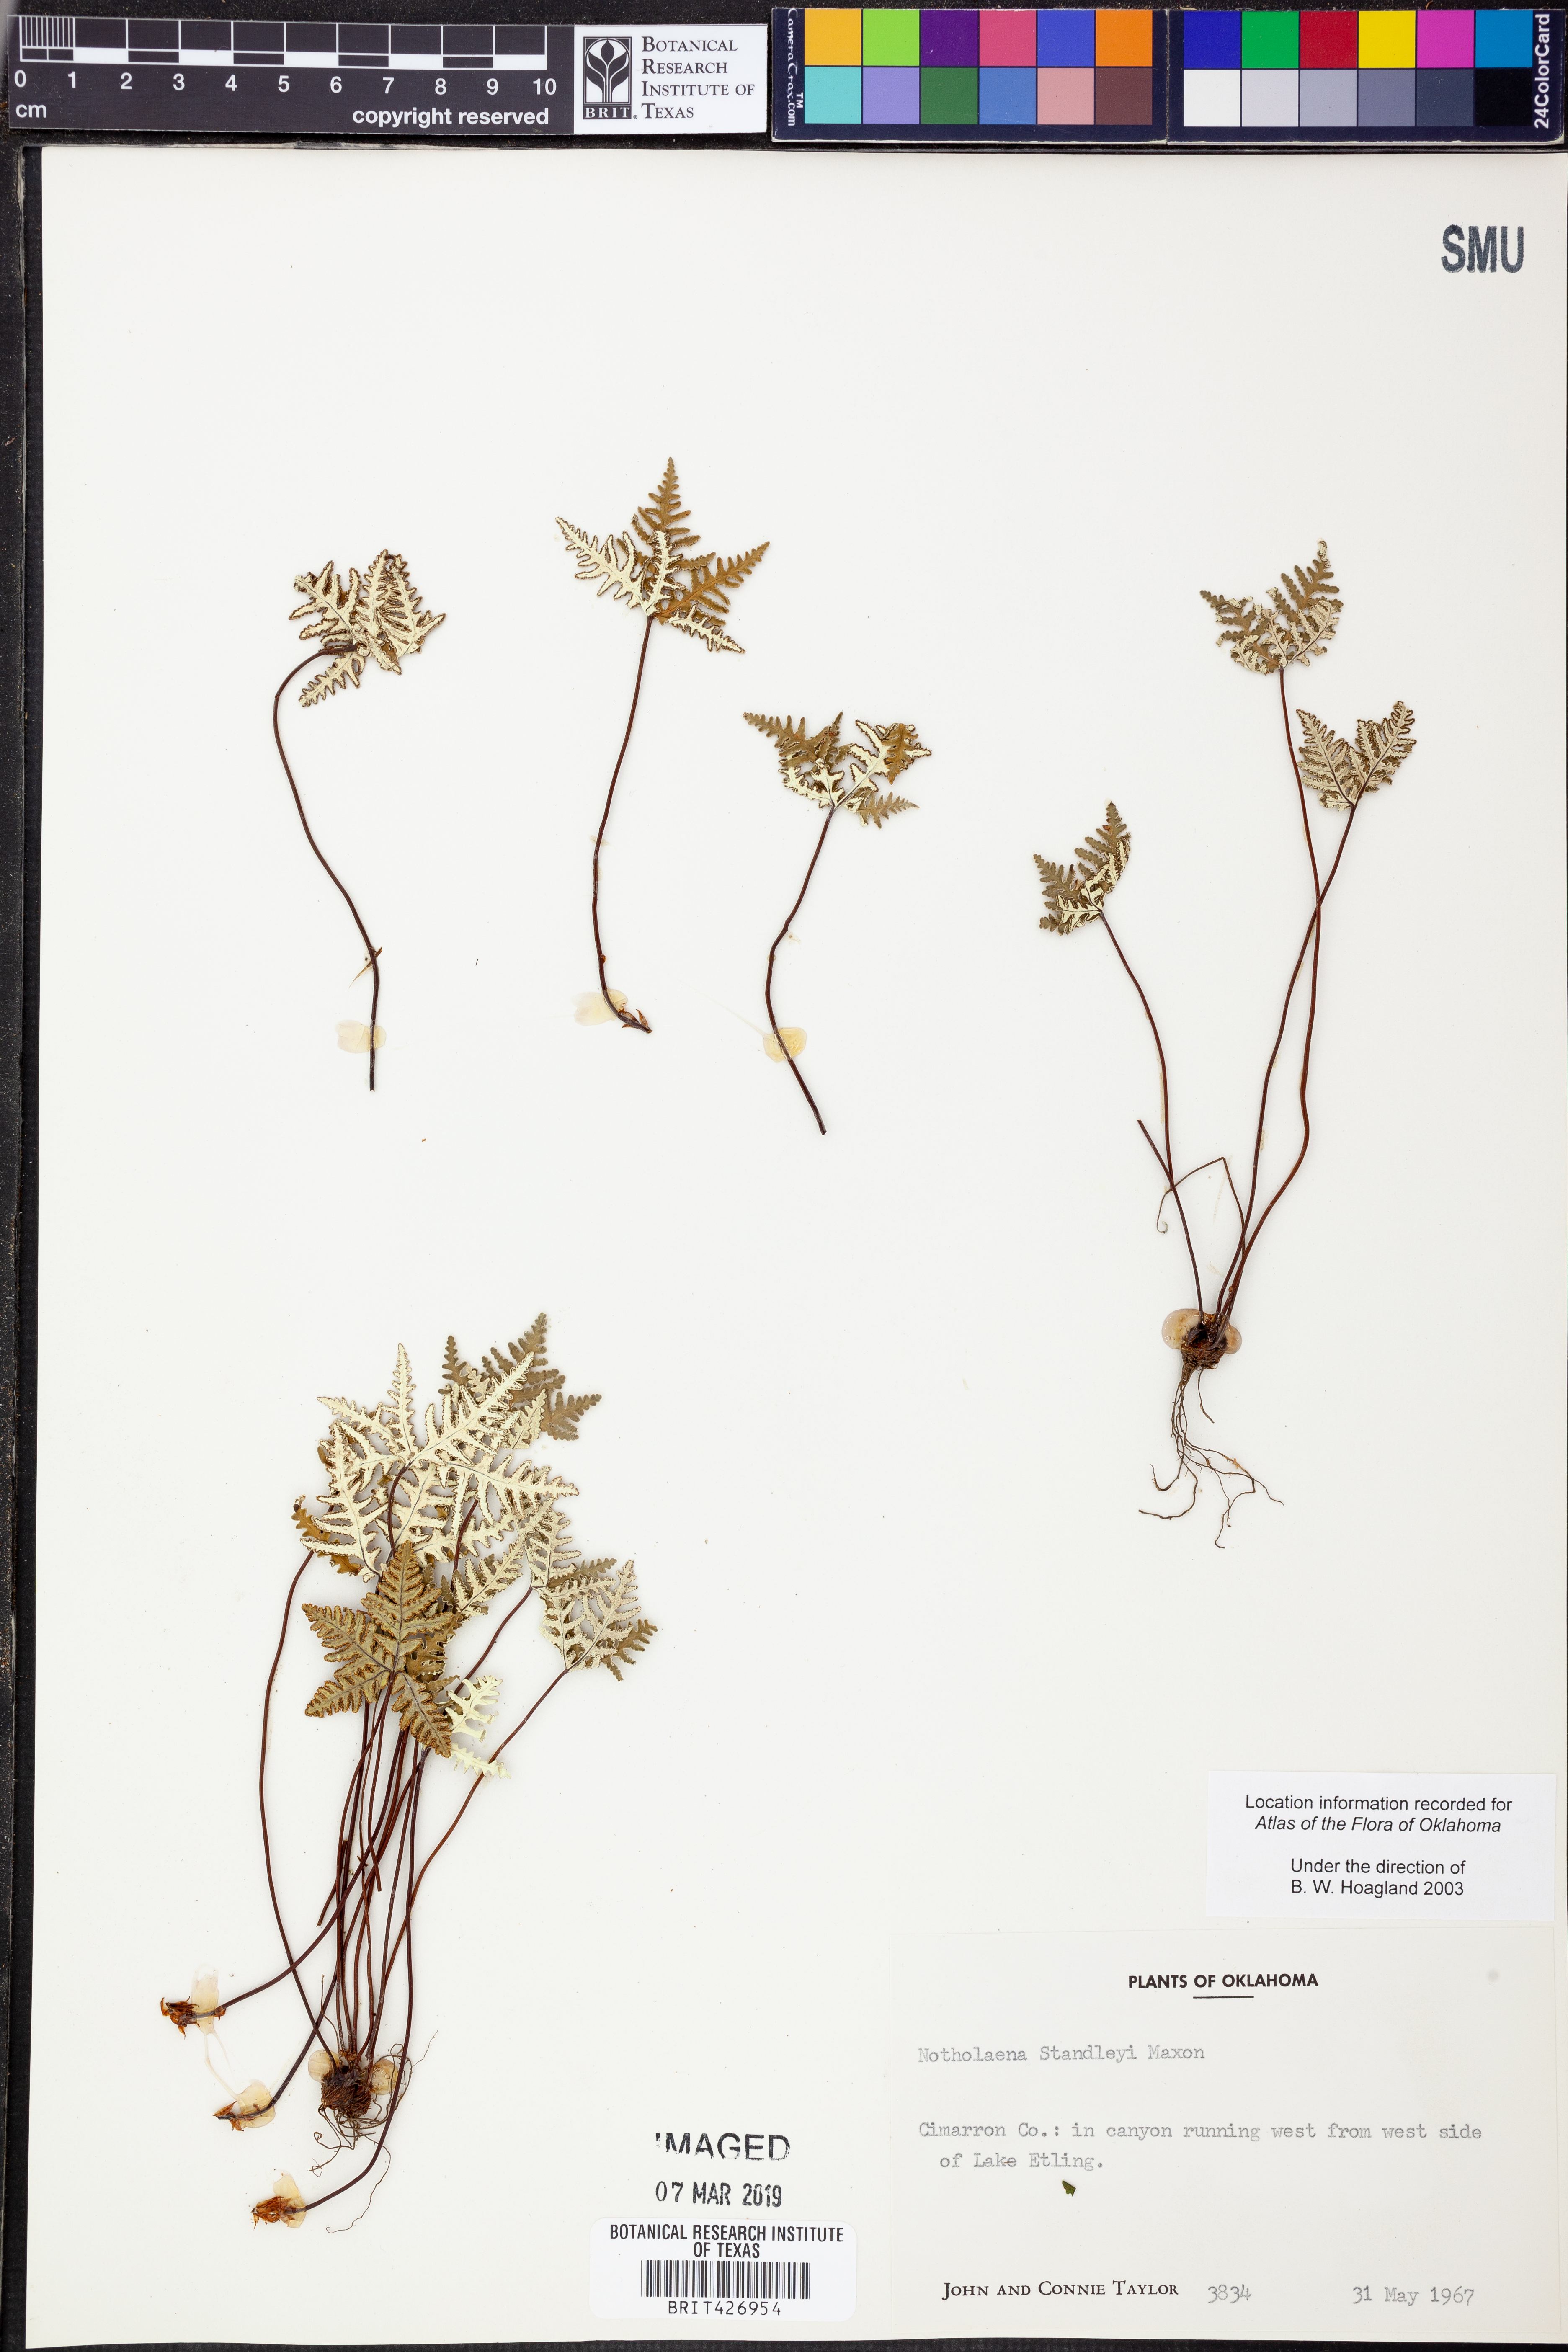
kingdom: Plantae
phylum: Tracheophyta
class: Polypodiopsida
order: Polypodiales
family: Pteridaceae
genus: Notholaena
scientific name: Notholaena standleyi
